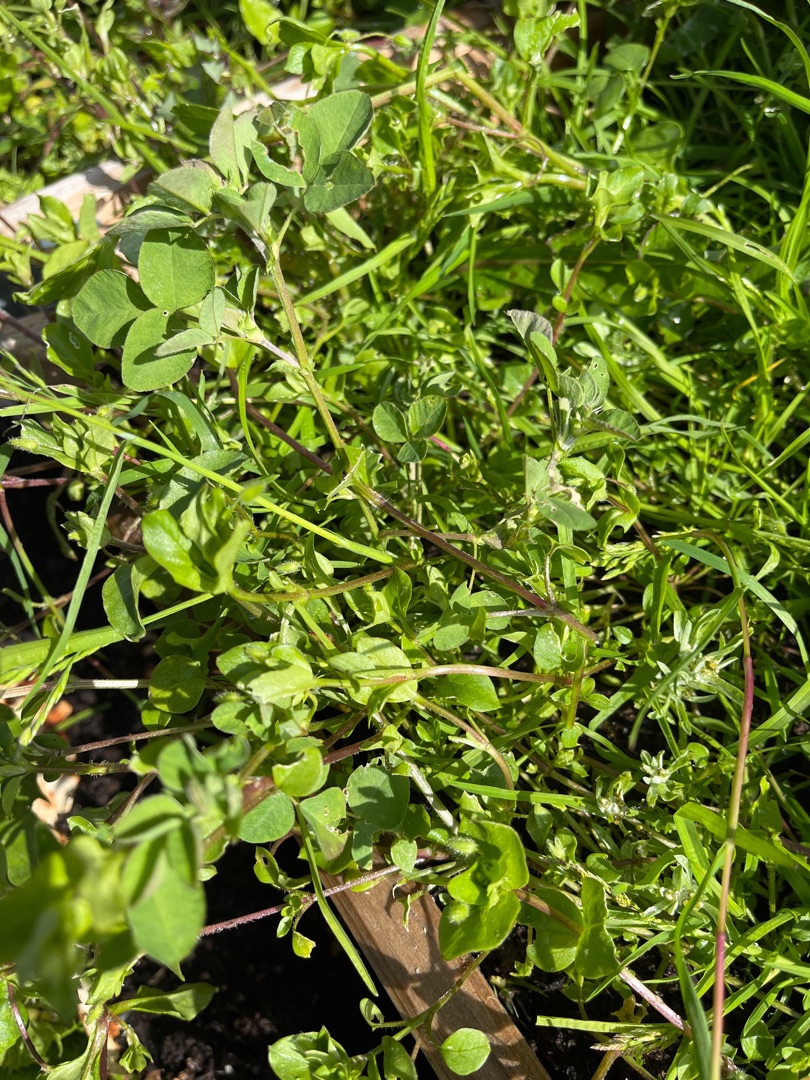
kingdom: Plantae
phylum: Tracheophyta
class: Magnoliopsida
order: Caryophyllales
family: Caryophyllaceae
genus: Stellaria
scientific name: Stellaria media
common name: Almindelig fuglegræs
